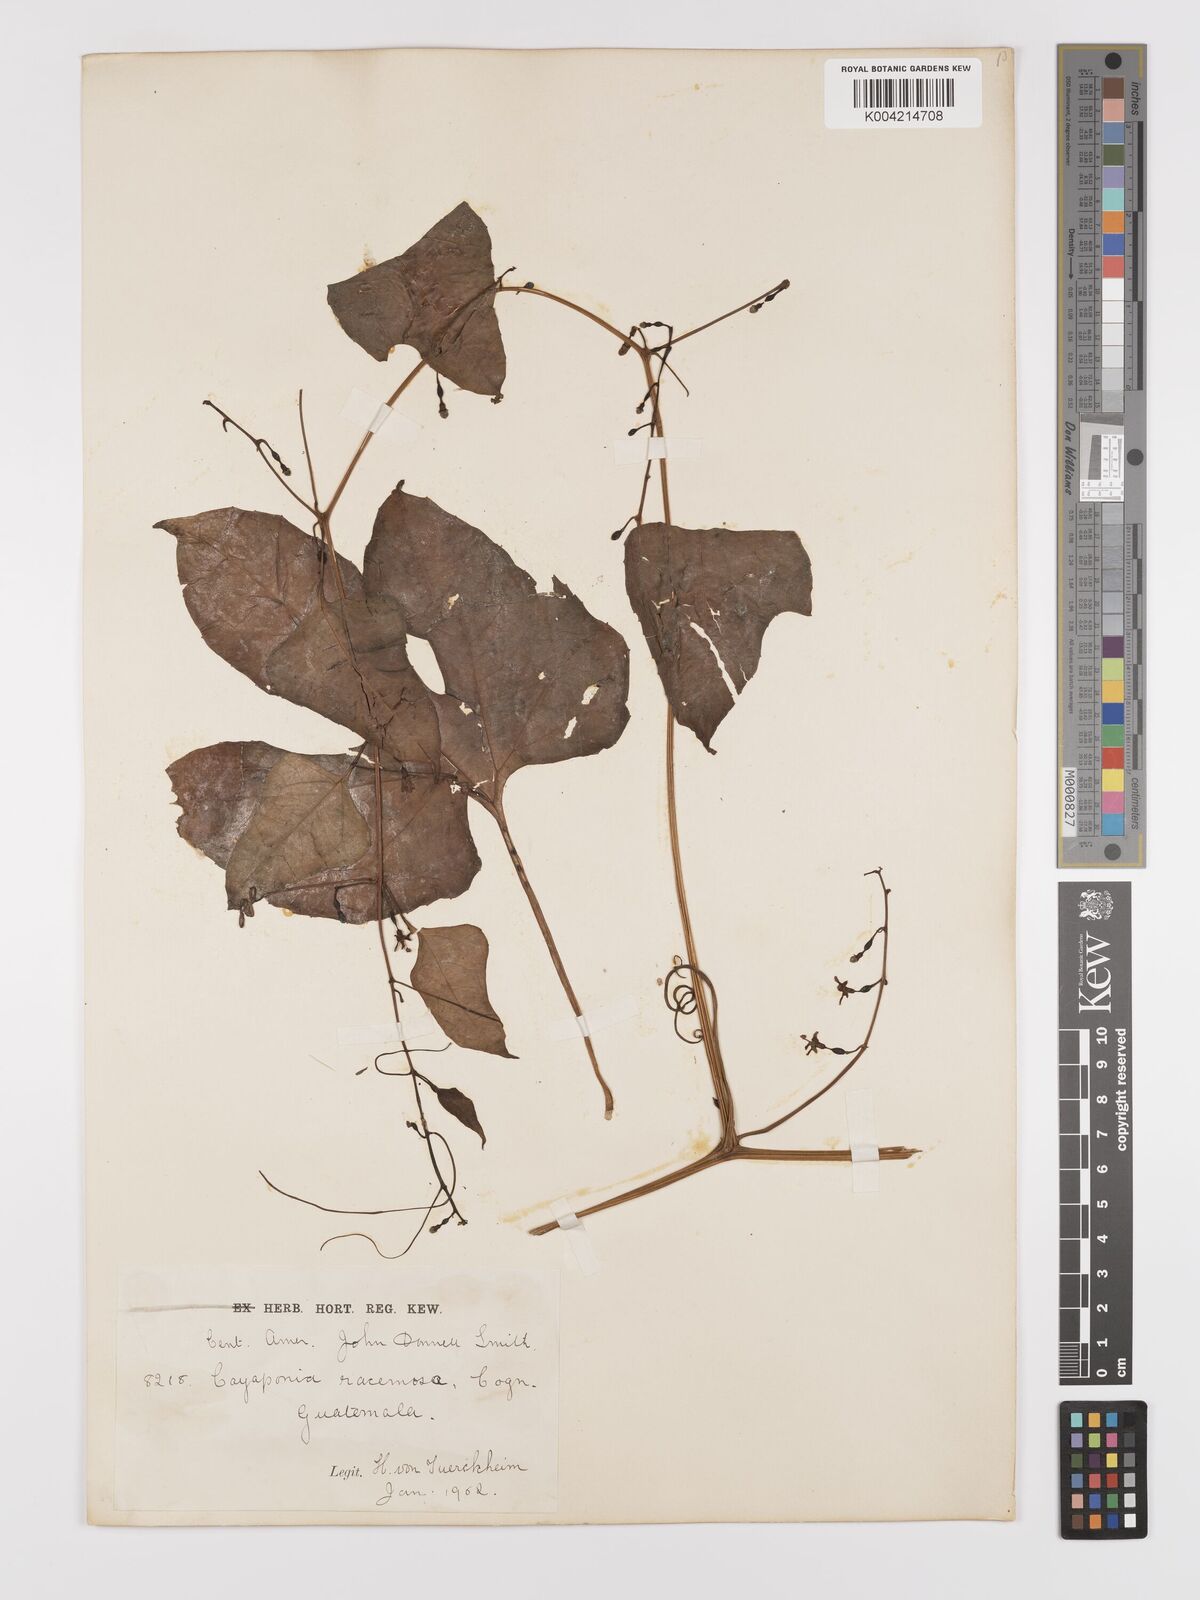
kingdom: Plantae
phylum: Tracheophyta
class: Magnoliopsida
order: Cucurbitales
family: Cucurbitaceae
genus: Cayaponia
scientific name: Cayaponia racemosa
